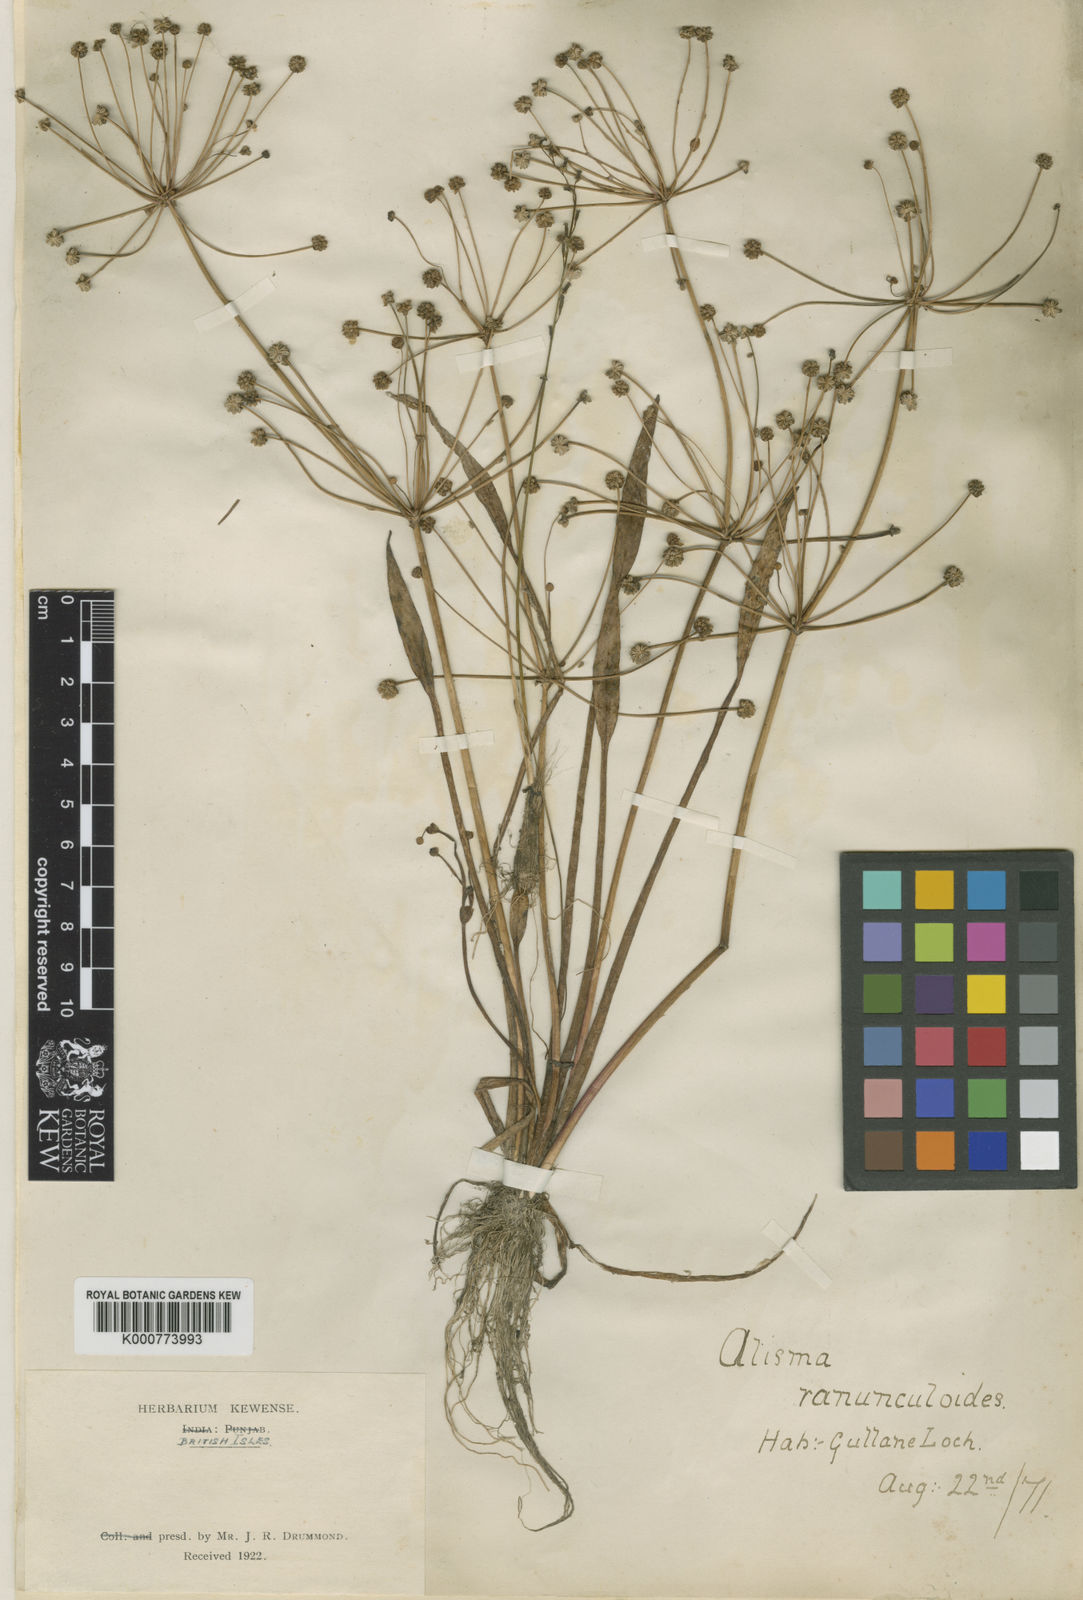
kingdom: Plantae
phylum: Tracheophyta
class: Liliopsida
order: Alismatales
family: Alismataceae
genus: Baldellia
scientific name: Baldellia ranunculoides
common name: Lesser water-plantain
